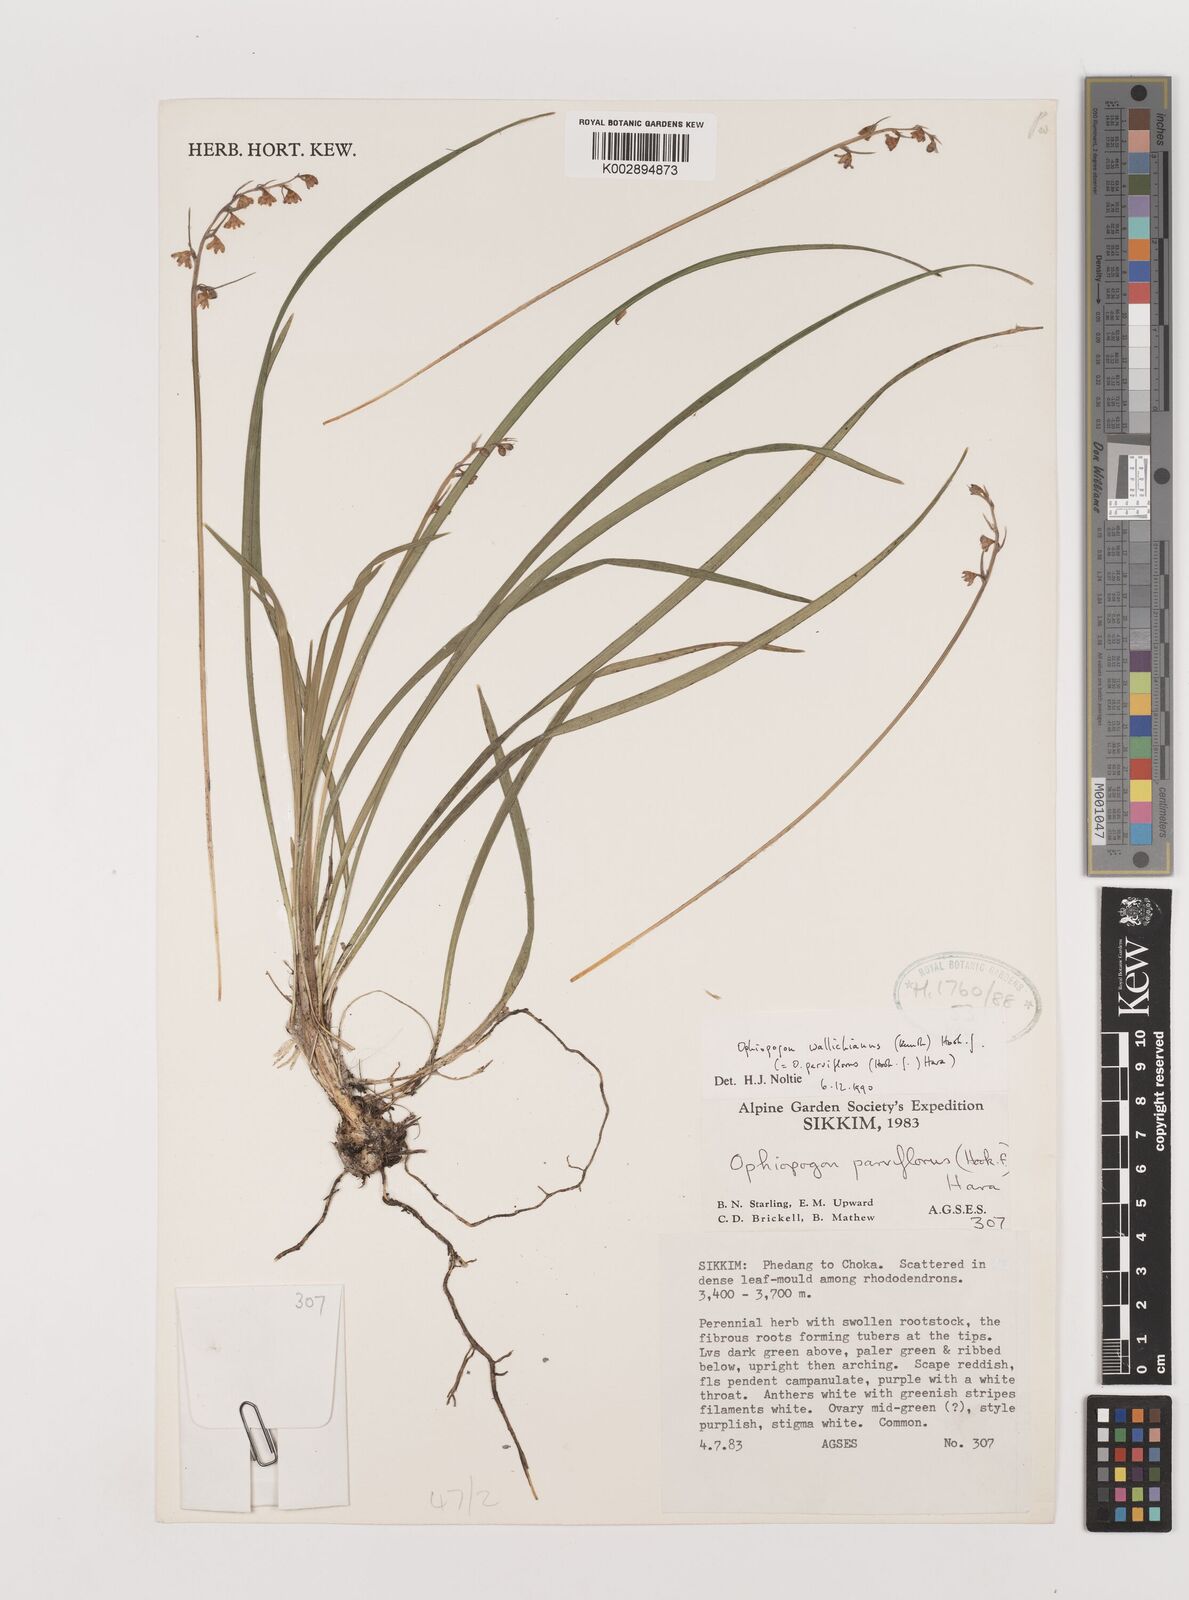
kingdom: Plantae
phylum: Tracheophyta
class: Liliopsida
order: Asparagales
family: Asparagaceae
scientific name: Asparagaceae
